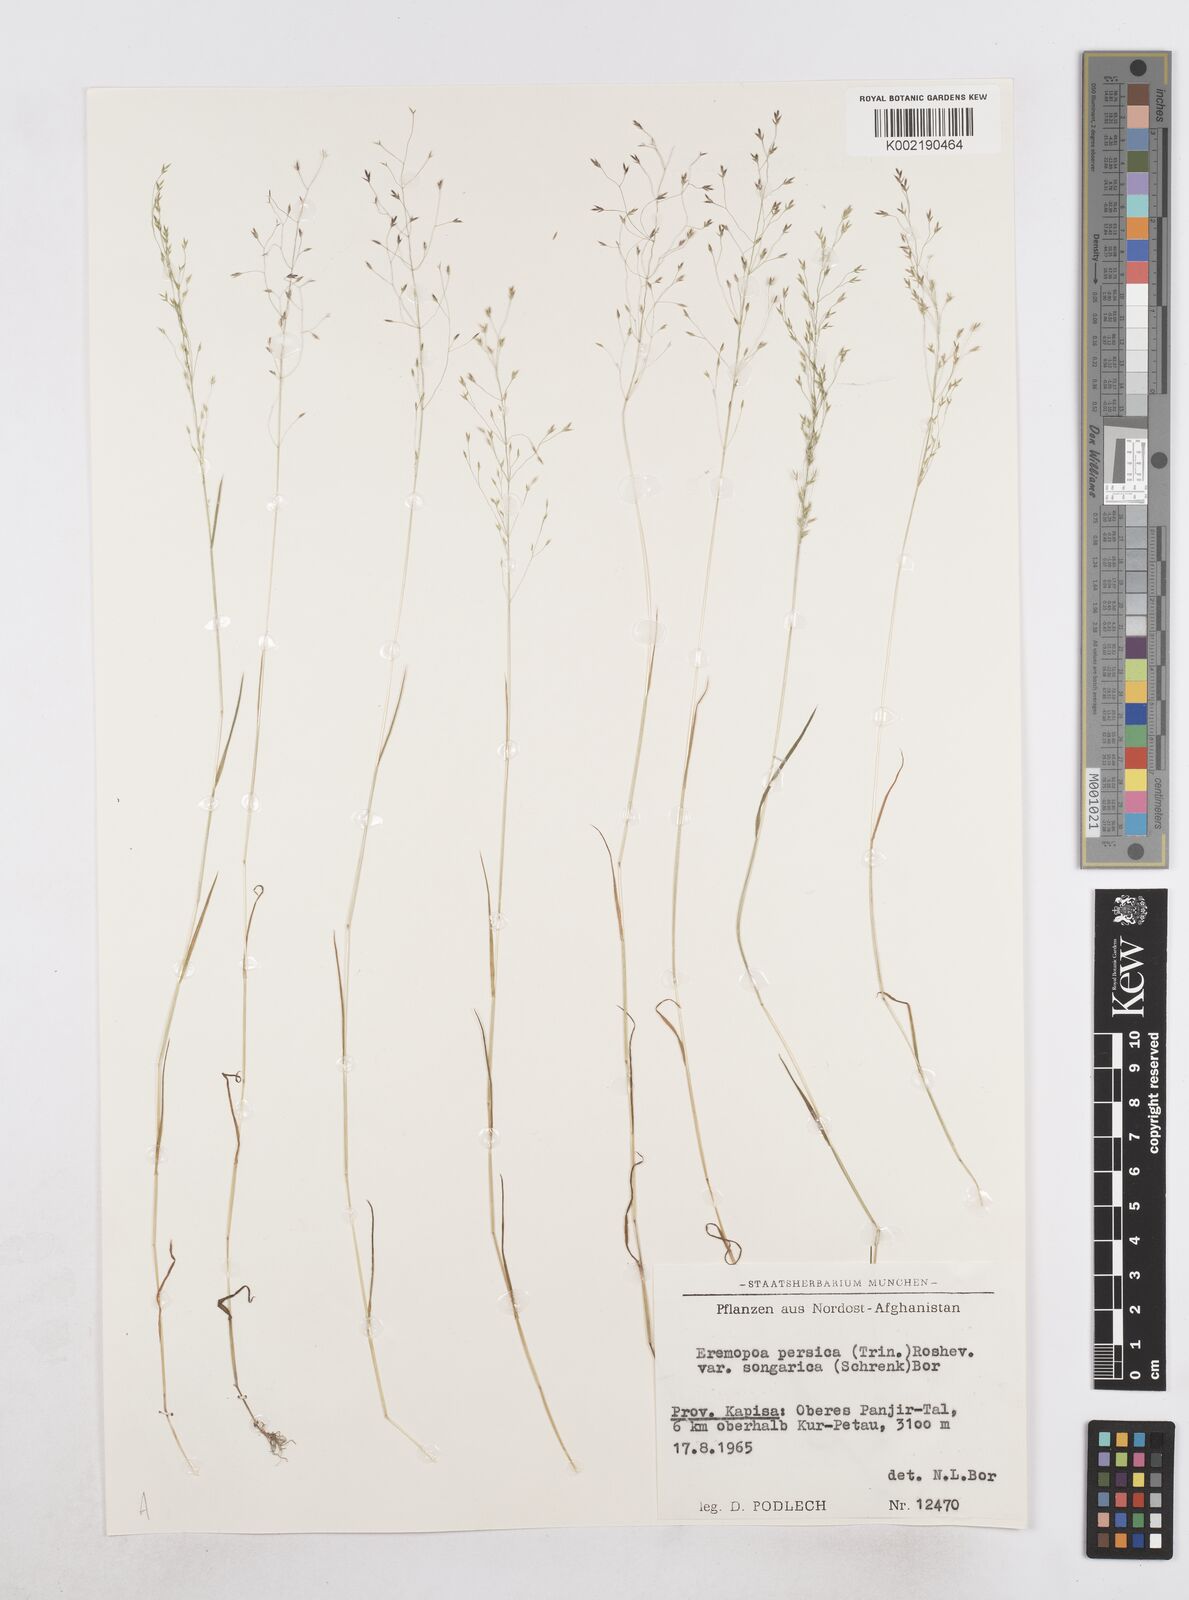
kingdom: Plantae
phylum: Tracheophyta
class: Liliopsida
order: Poales
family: Poaceae
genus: Poa
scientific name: Poa diaphora
